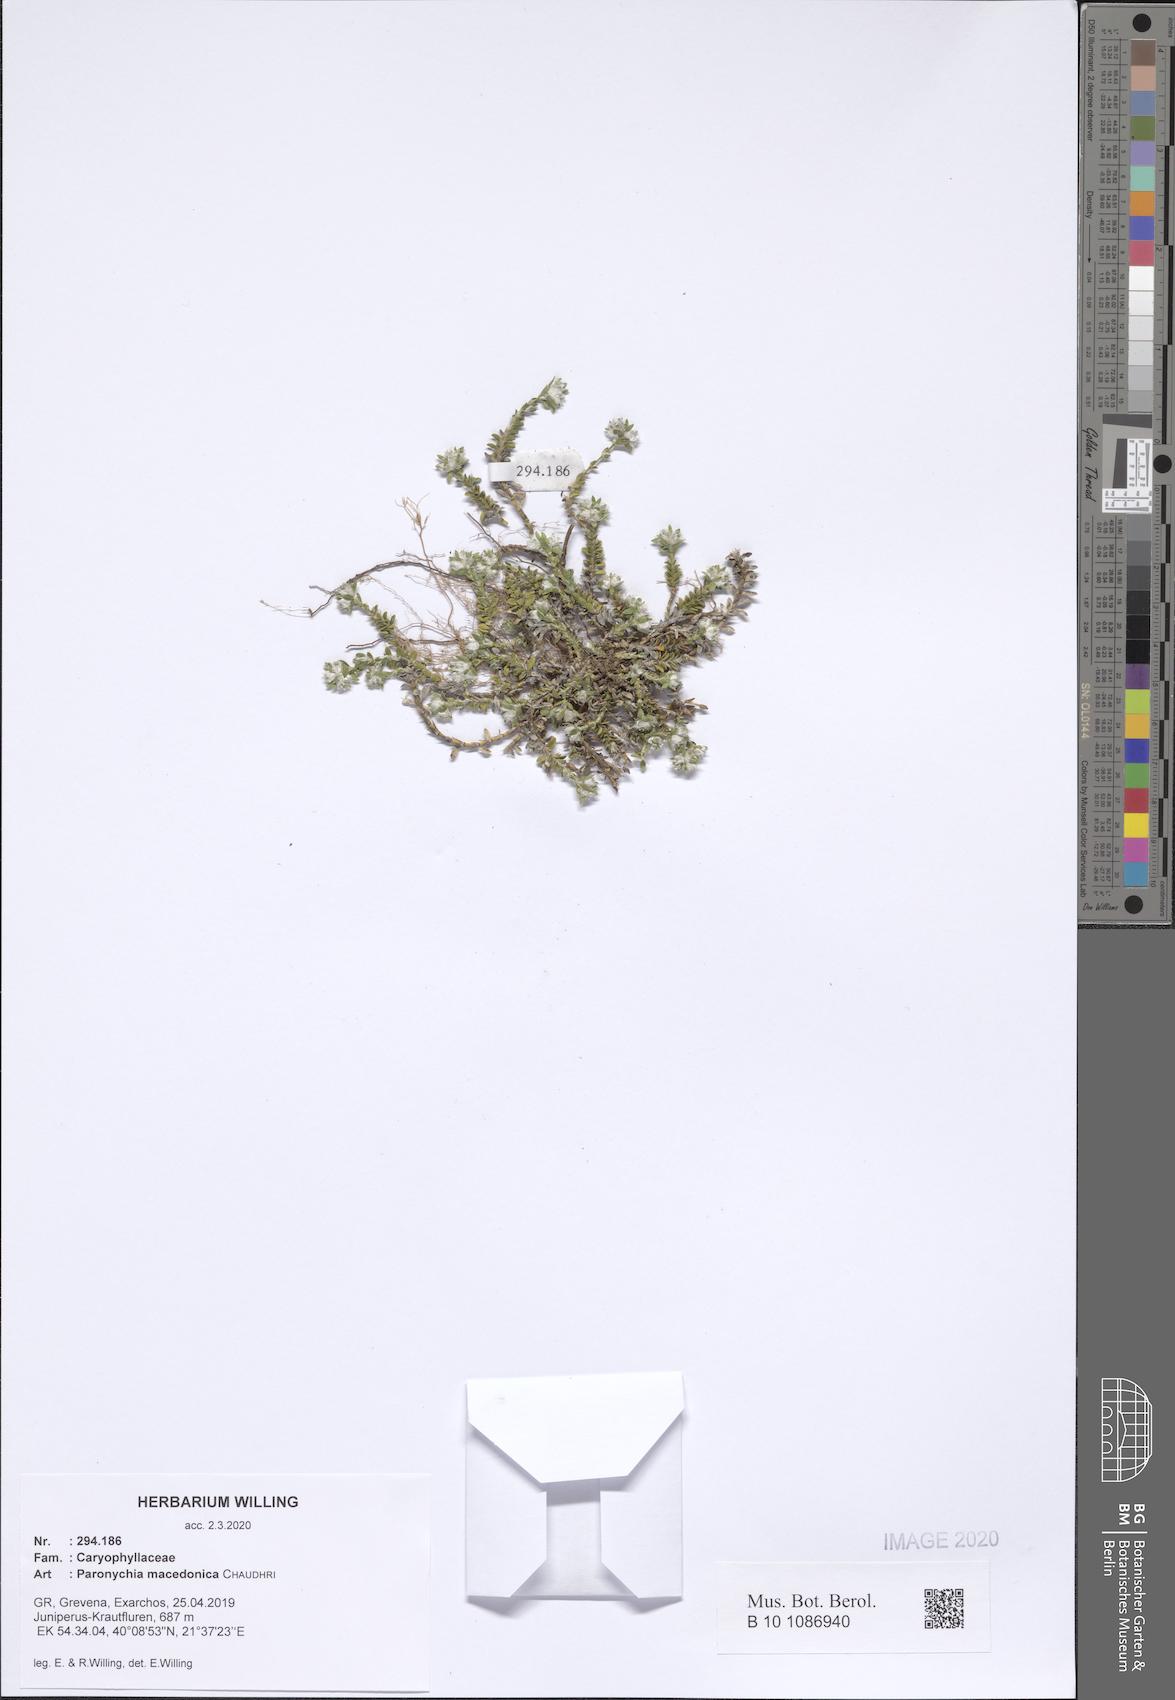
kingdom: Plantae
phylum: Tracheophyta
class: Magnoliopsida
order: Caryophyllales
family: Caryophyllaceae
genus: Paronychia
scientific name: Paronychia macedonica
